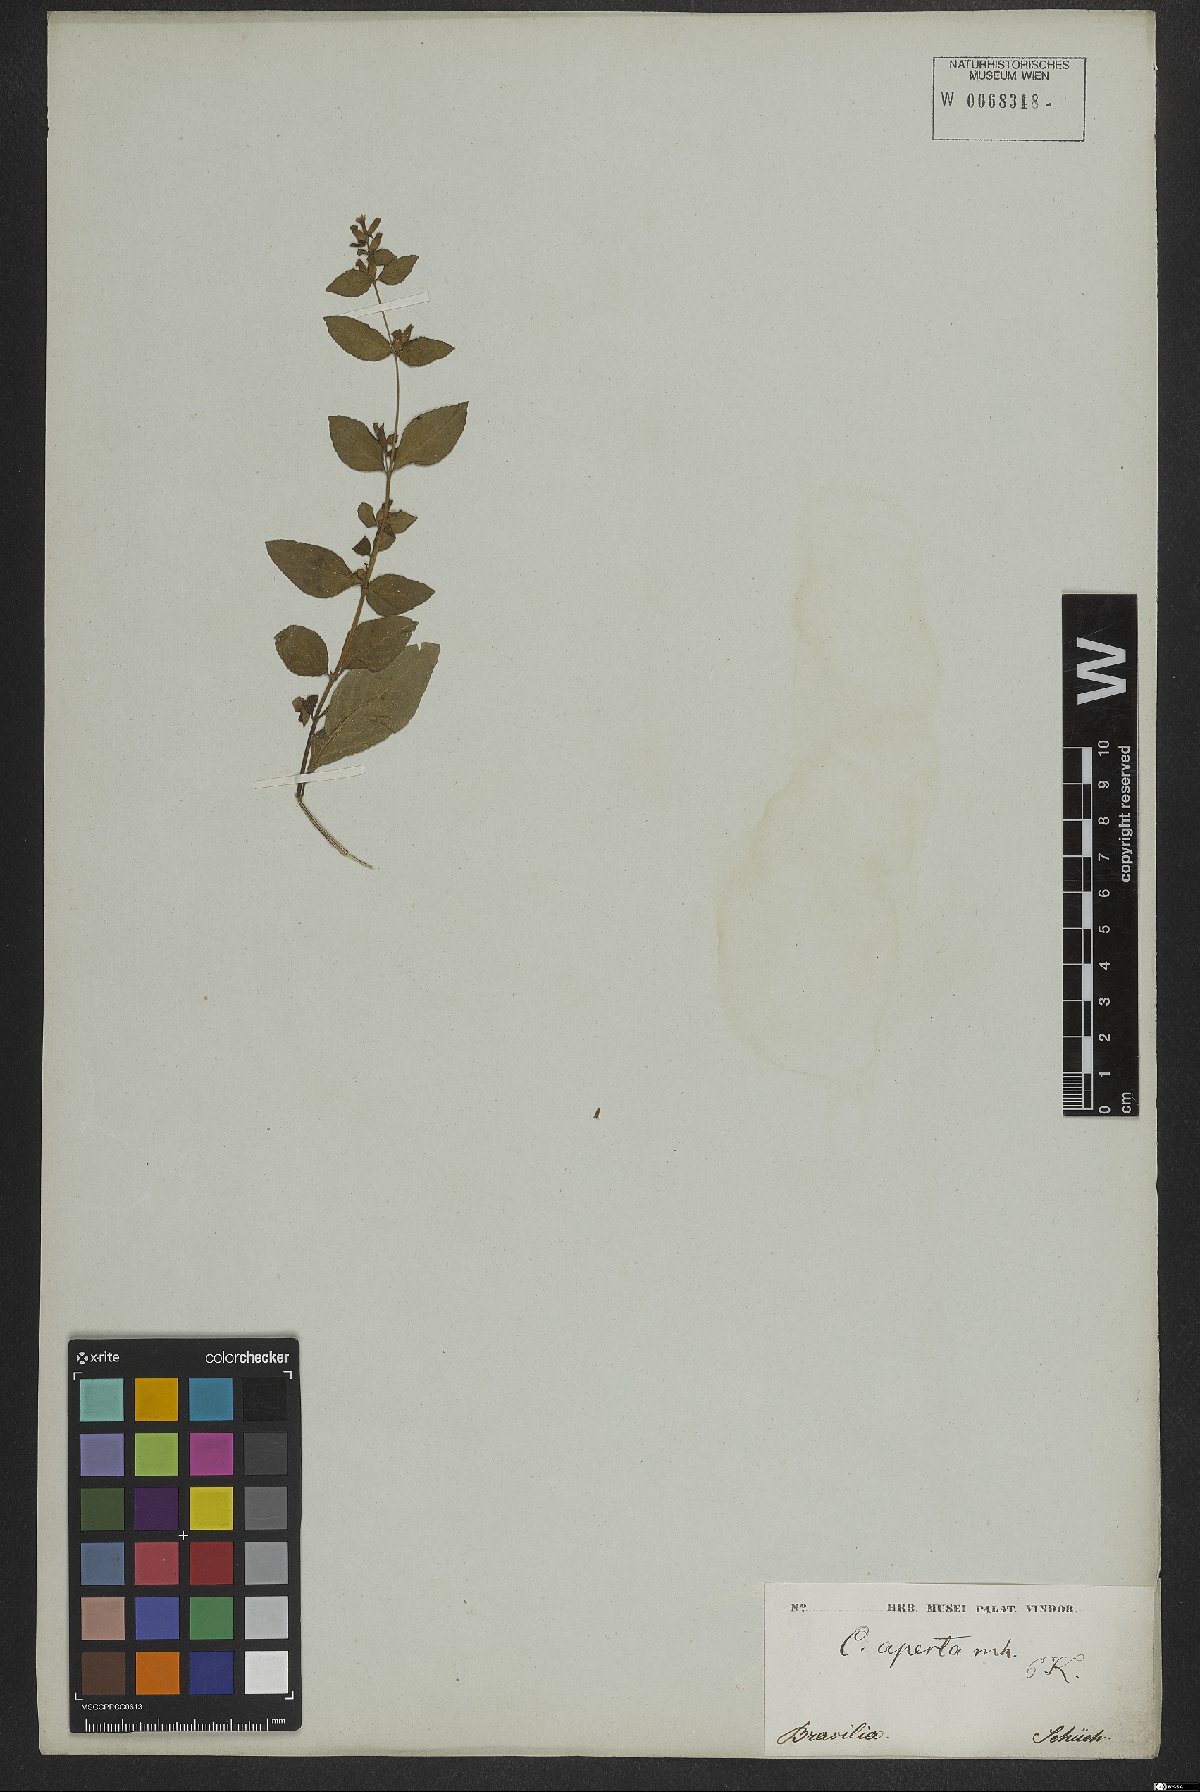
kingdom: Plantae
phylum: Tracheophyta
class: Magnoliopsida
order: Myrtales
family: Lythraceae
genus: Cuphea
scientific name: Cuphea aperta
